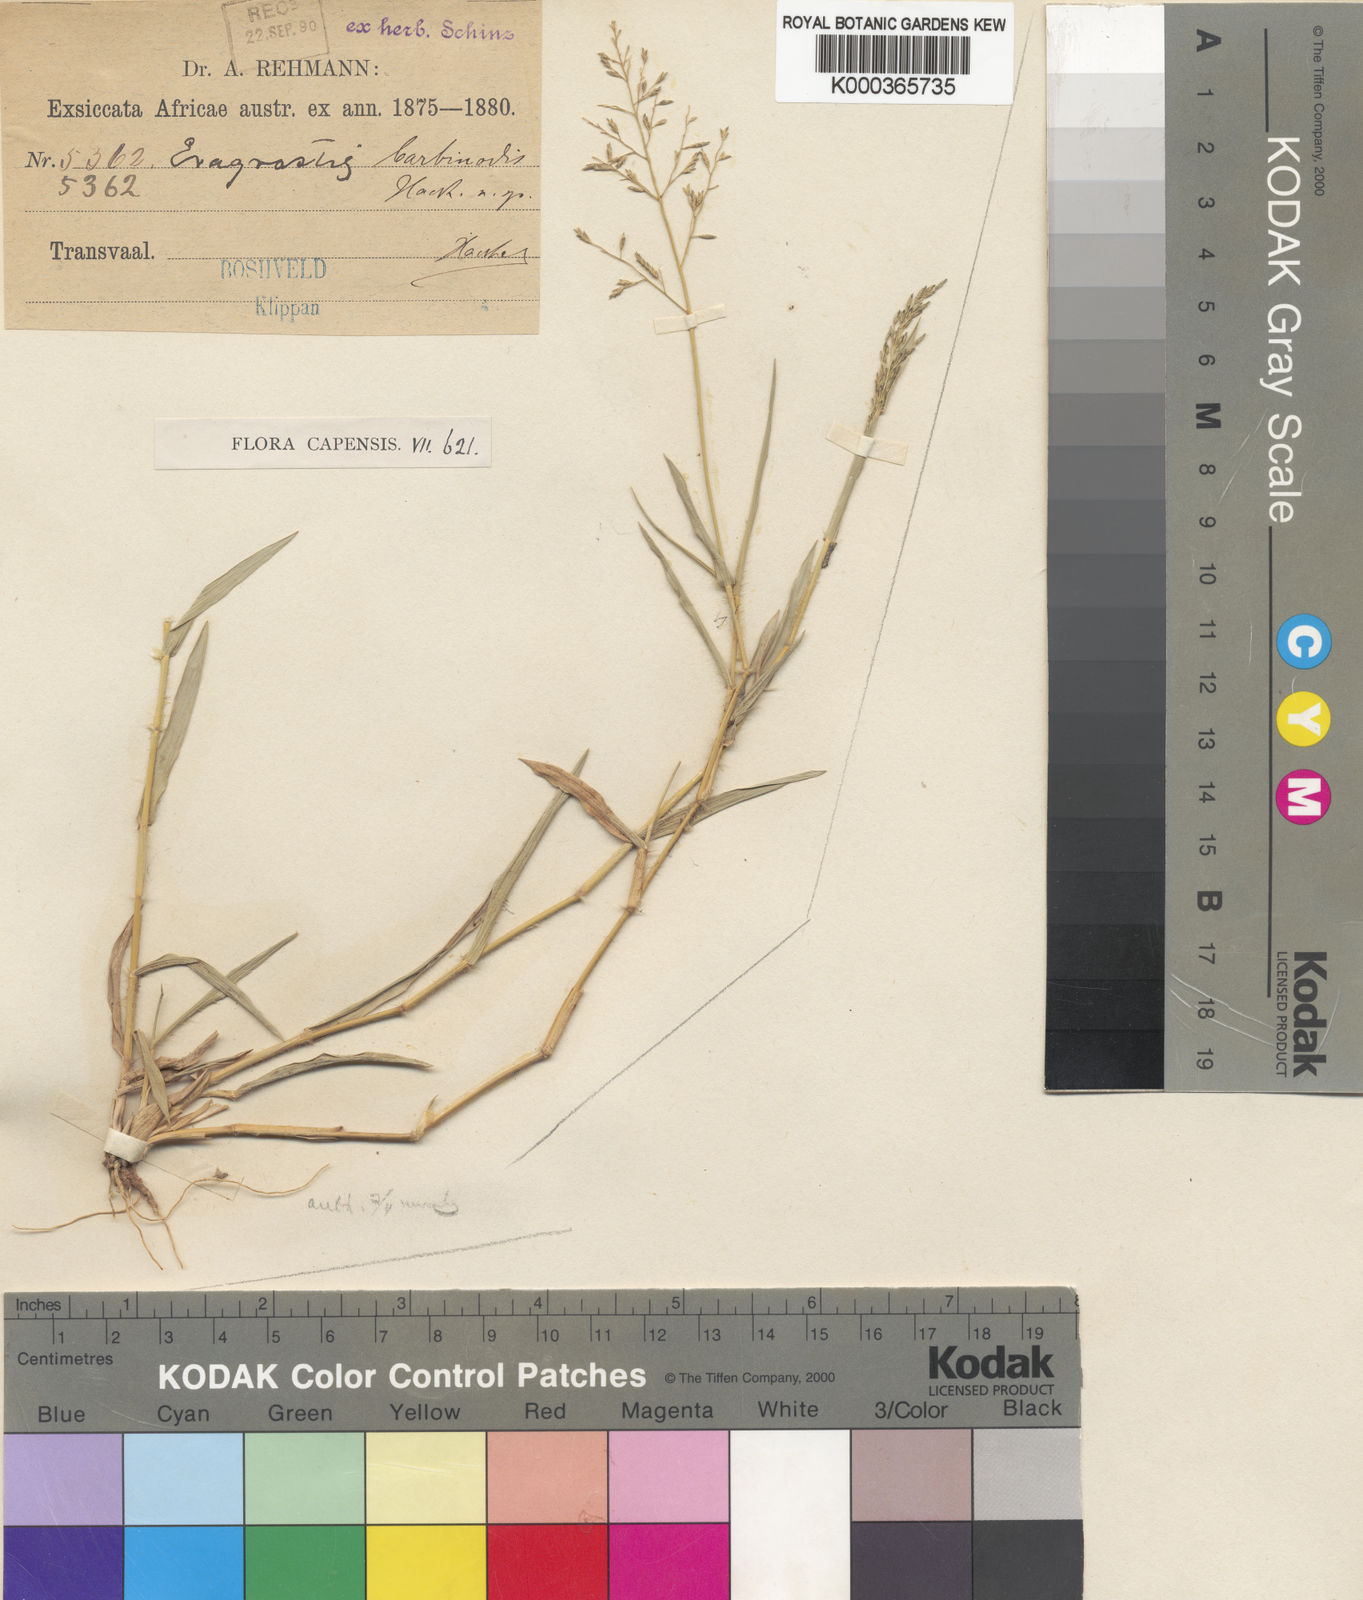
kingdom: Plantae
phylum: Tracheophyta
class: Liliopsida
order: Poales
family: Poaceae
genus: Eragrostis
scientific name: Eragrostis
